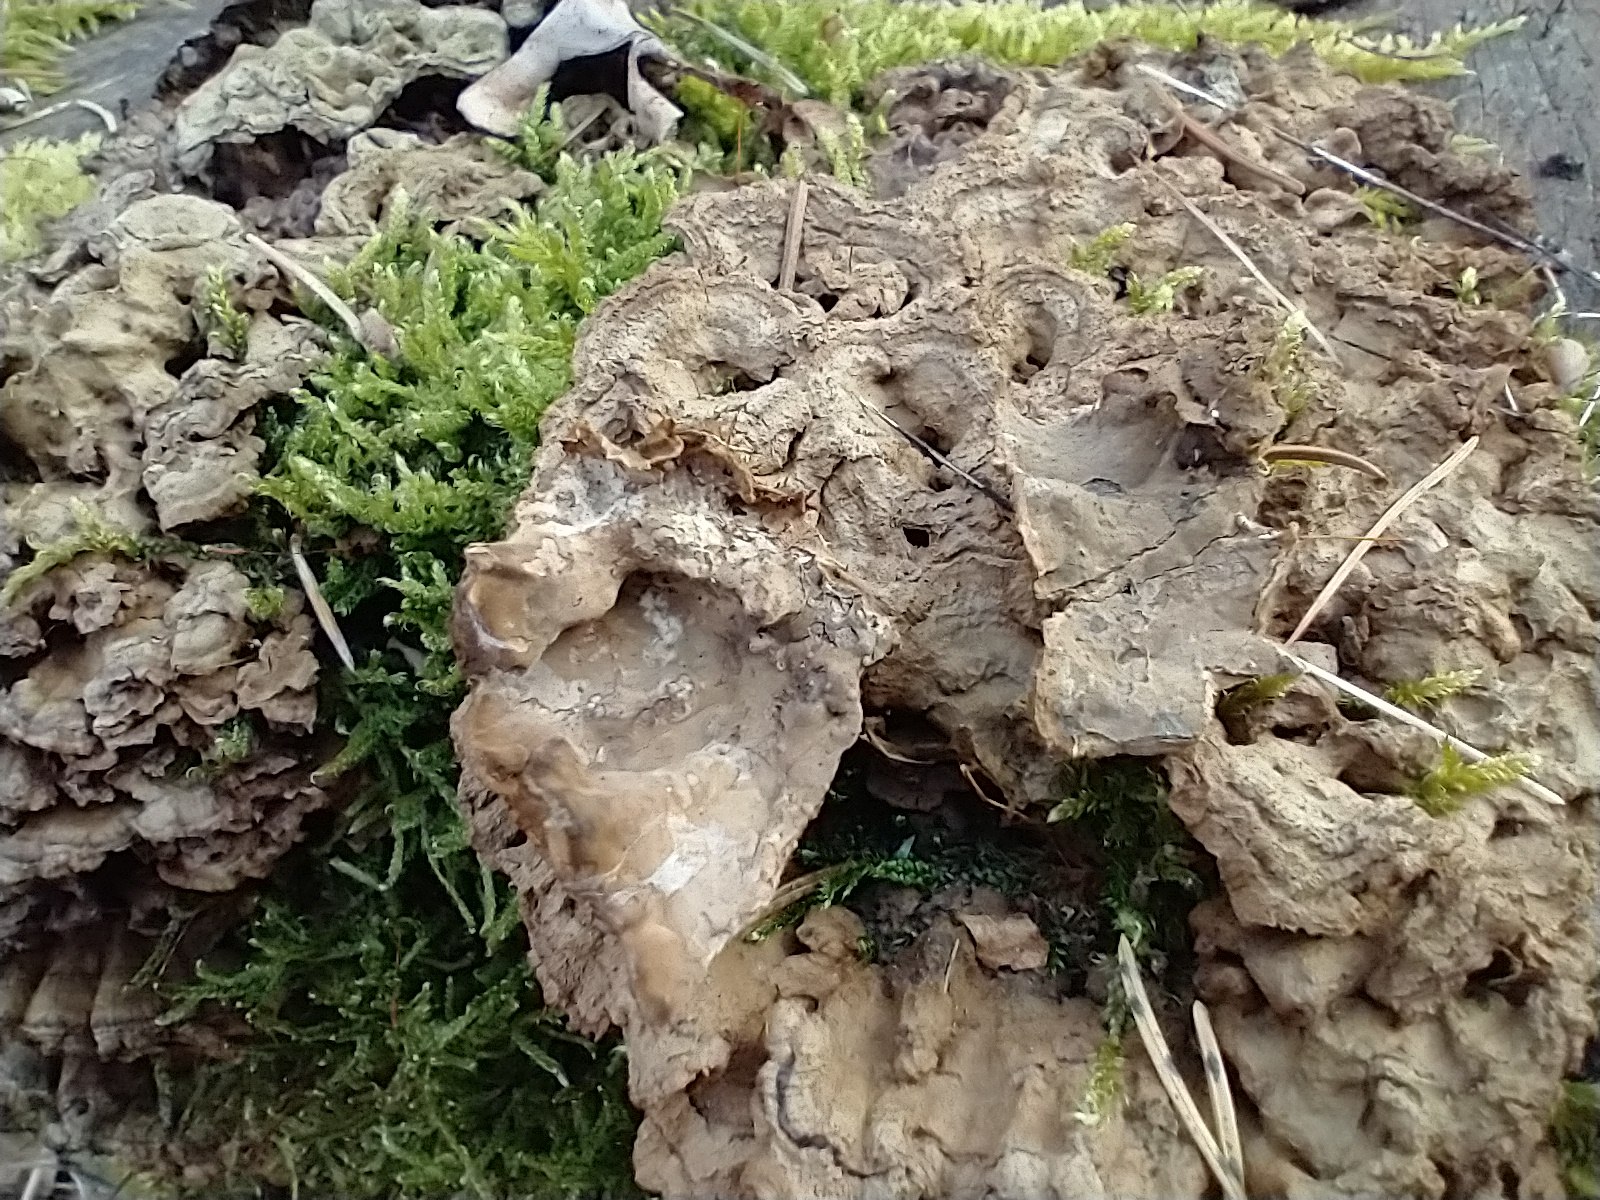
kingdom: Fungi
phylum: Basidiomycota
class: Agaricomycetes
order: Russulales
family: Hericiaceae
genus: Laxitextum
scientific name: Laxitextum bicolor
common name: tvefarvet filtskind
